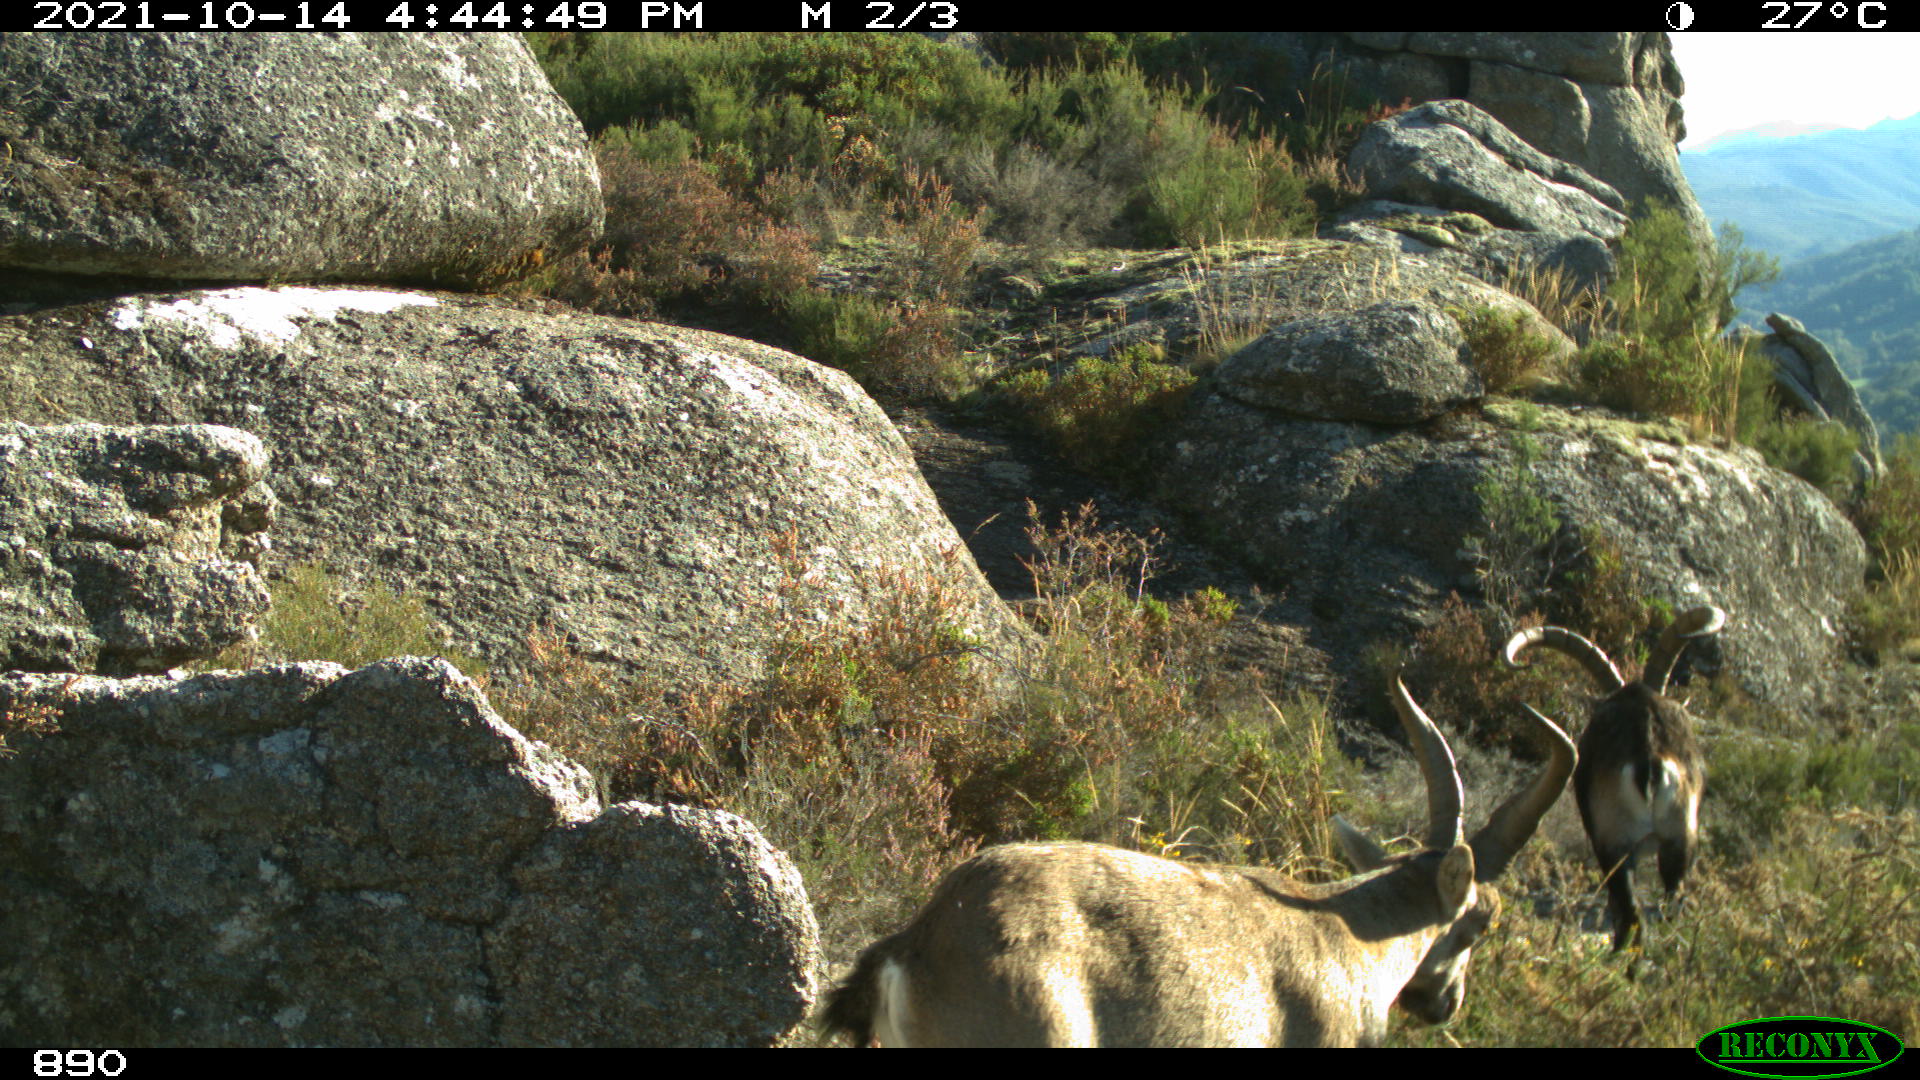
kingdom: Animalia
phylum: Chordata
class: Mammalia
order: Artiodactyla
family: Bovidae
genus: Capra
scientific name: Capra pyrenaica
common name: Spanish ibex
